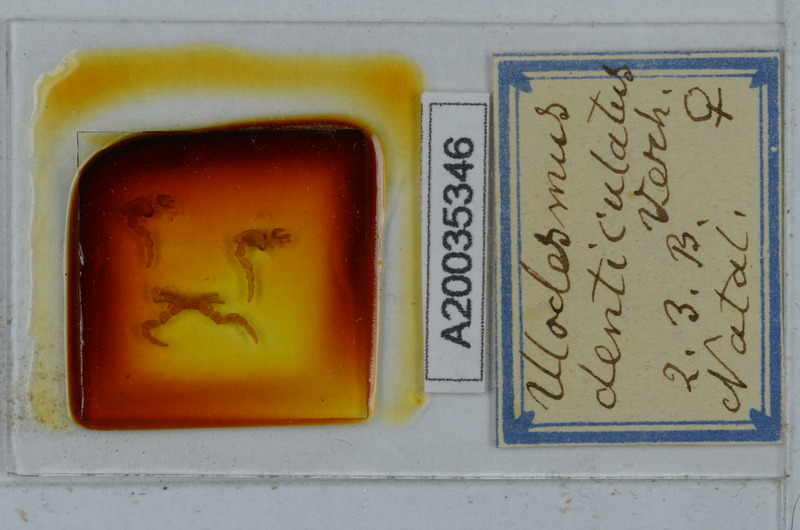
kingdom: Animalia
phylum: Arthropoda
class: Diplopoda
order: Polydesmida
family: Gomphodesmidae
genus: Ulodesmus
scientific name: Ulodesmus denticulatus
